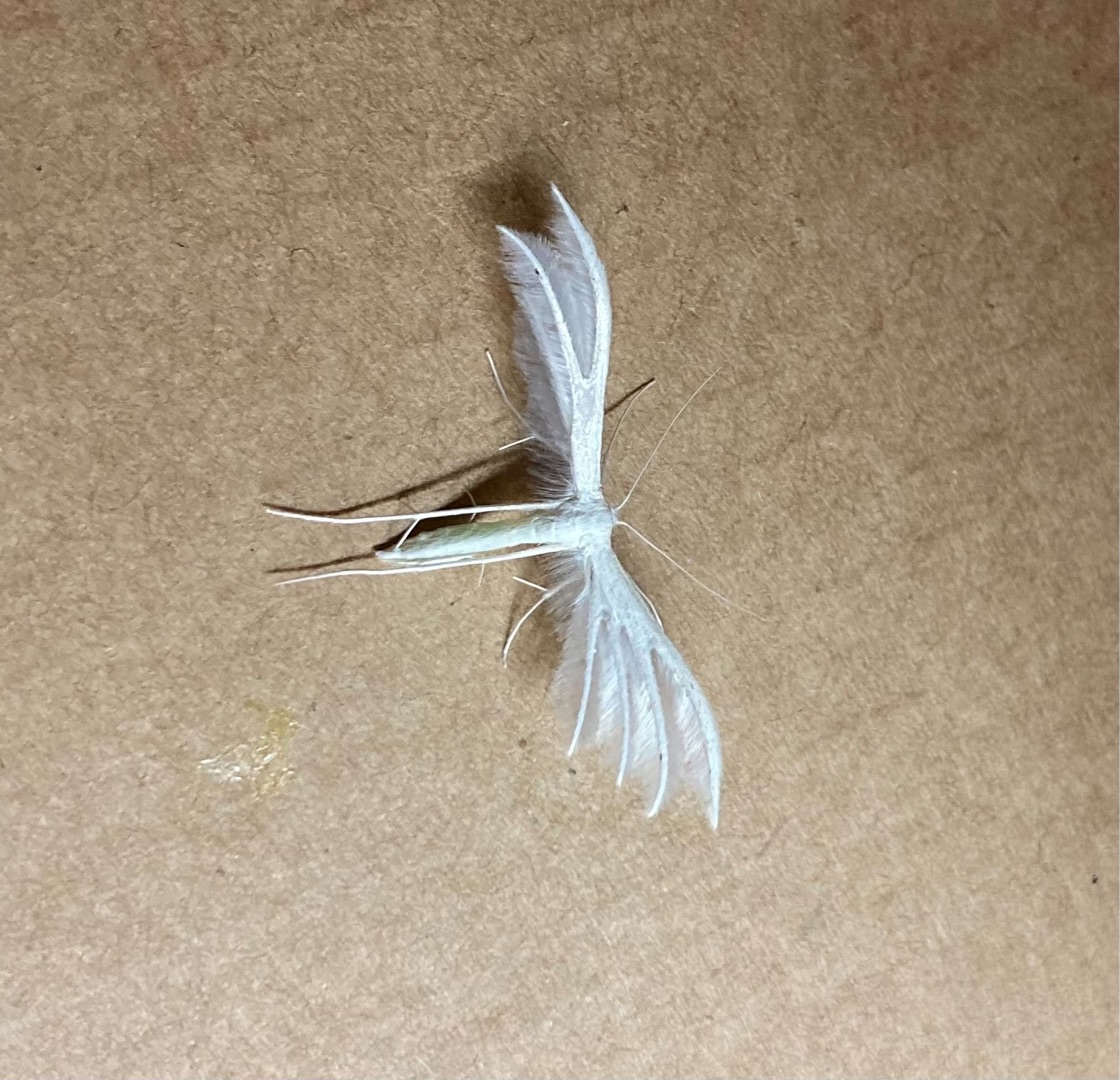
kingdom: Animalia
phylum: Arthropoda
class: Insecta
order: Lepidoptera
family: Pterophoridae
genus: Pterophorus
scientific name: Pterophorus pentadactyla
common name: Hvidt fjermøl
